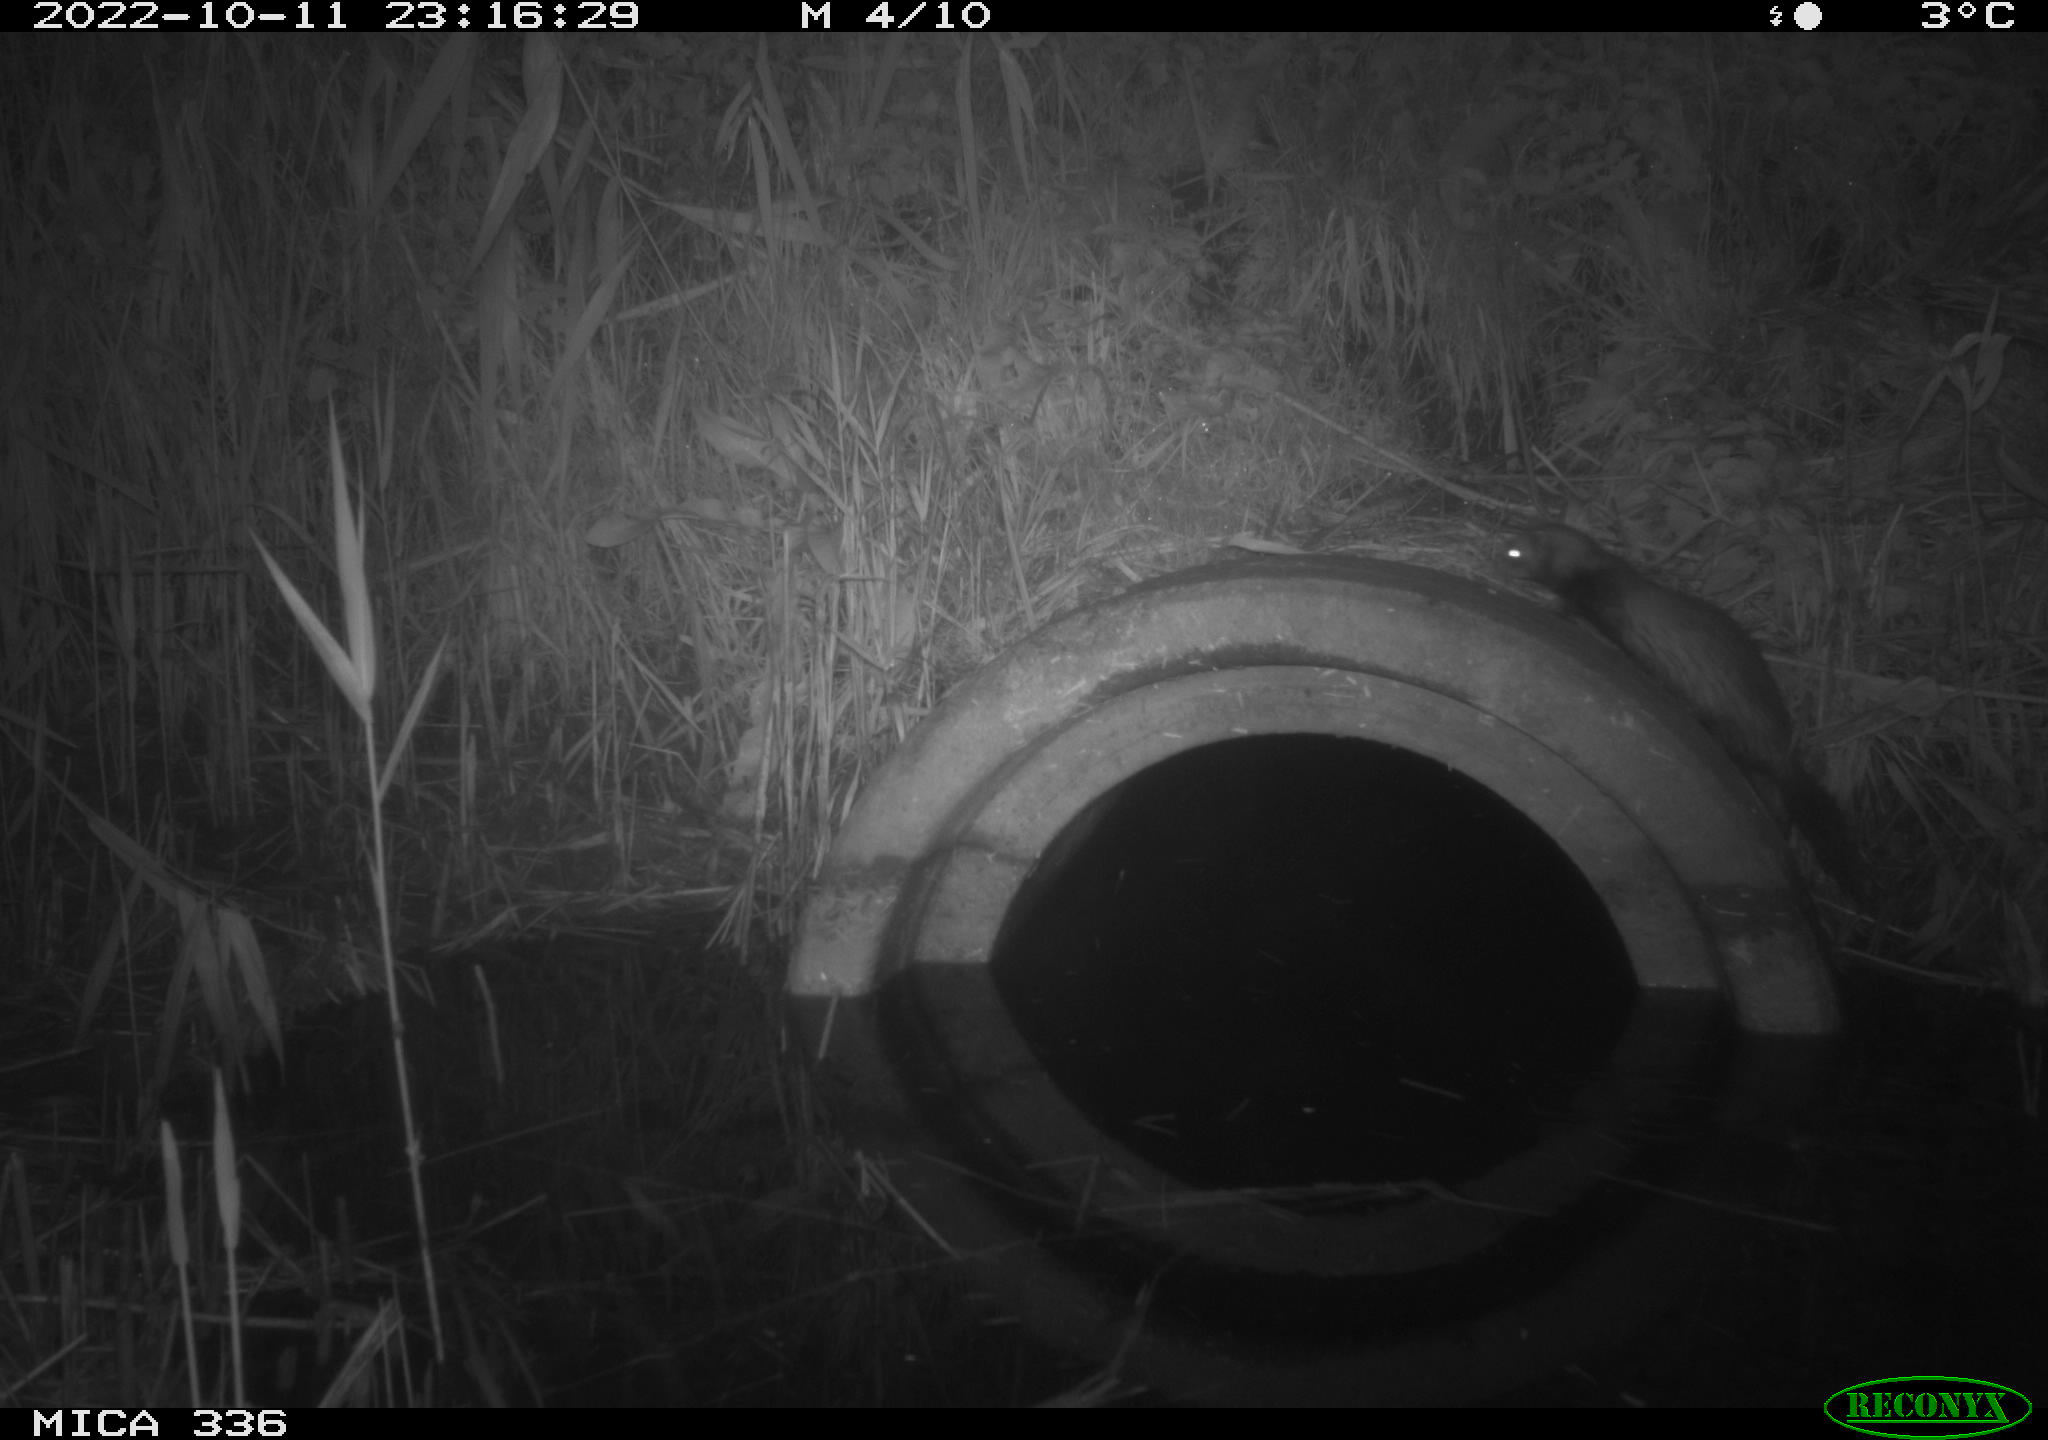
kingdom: Animalia
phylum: Chordata
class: Mammalia
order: Carnivora
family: Mustelidae
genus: Mustela
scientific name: Mustela putorius
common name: European polecat
